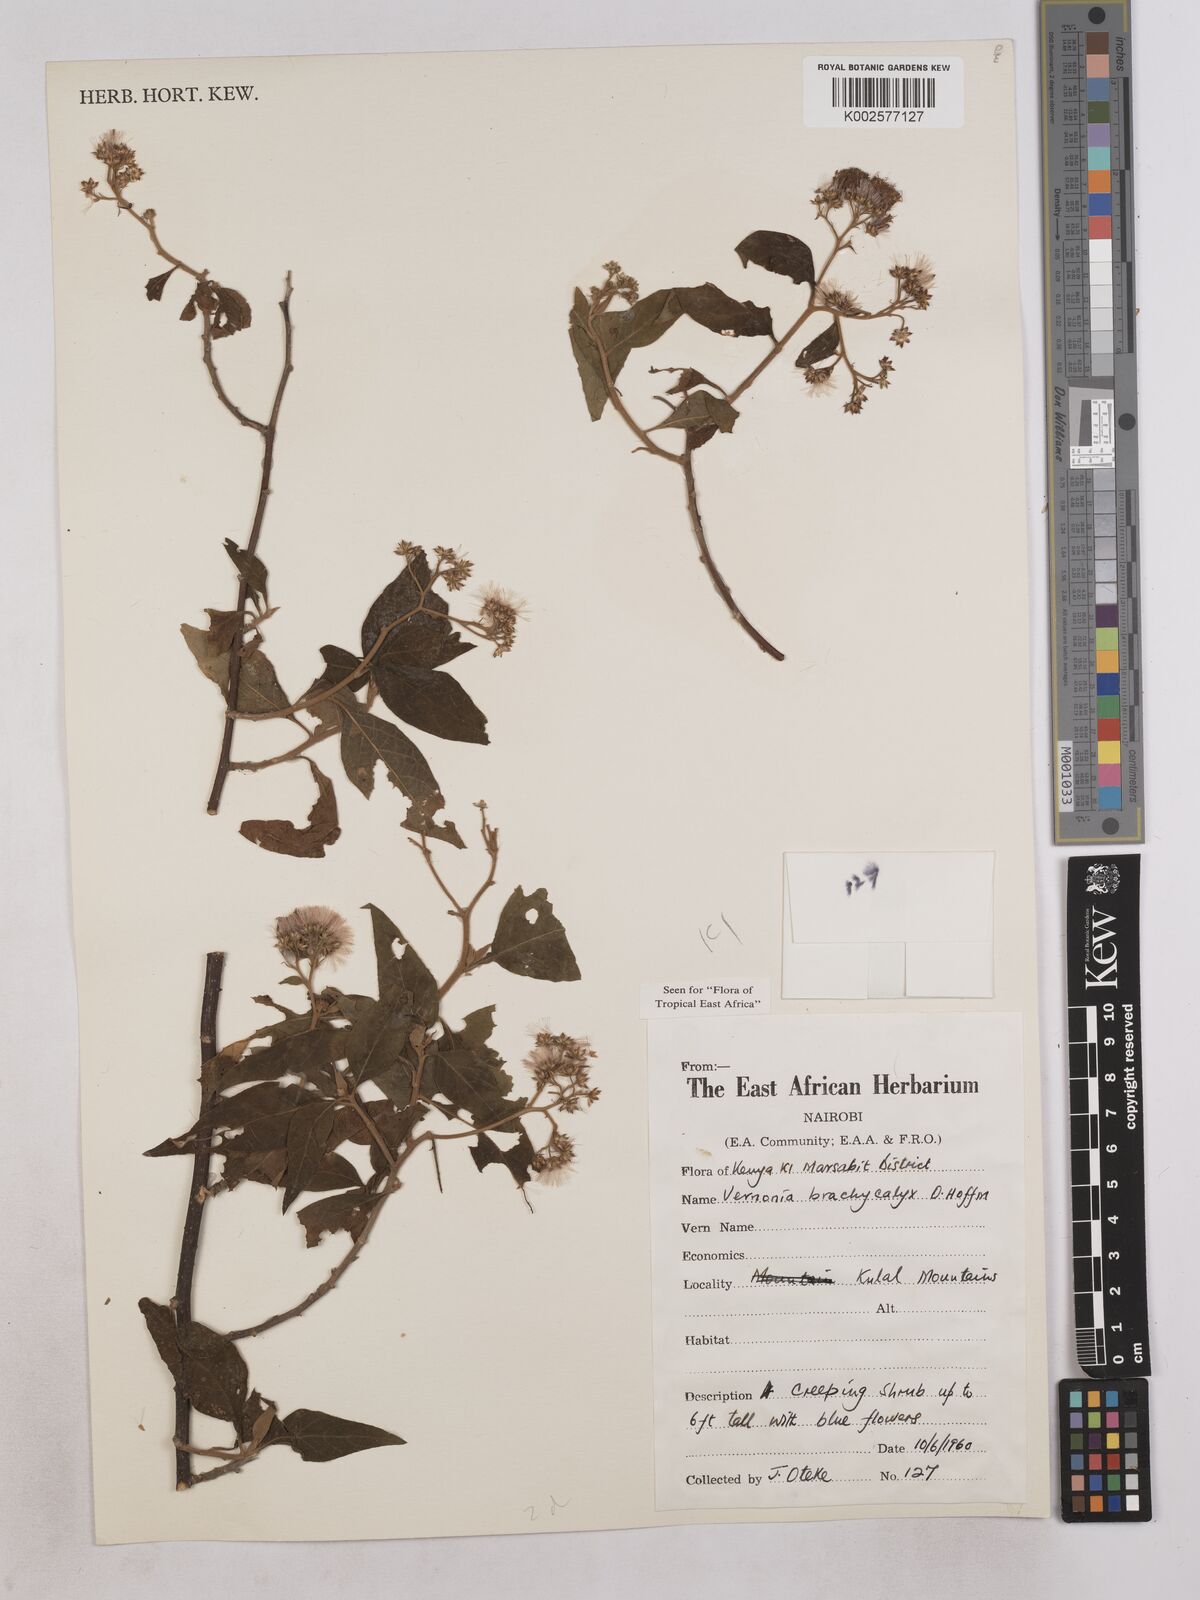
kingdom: Plantae
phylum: Tracheophyta
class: Magnoliopsida
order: Asterales
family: Asteraceae
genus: Hoffmannanthus
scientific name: Hoffmannanthus abbotianus
